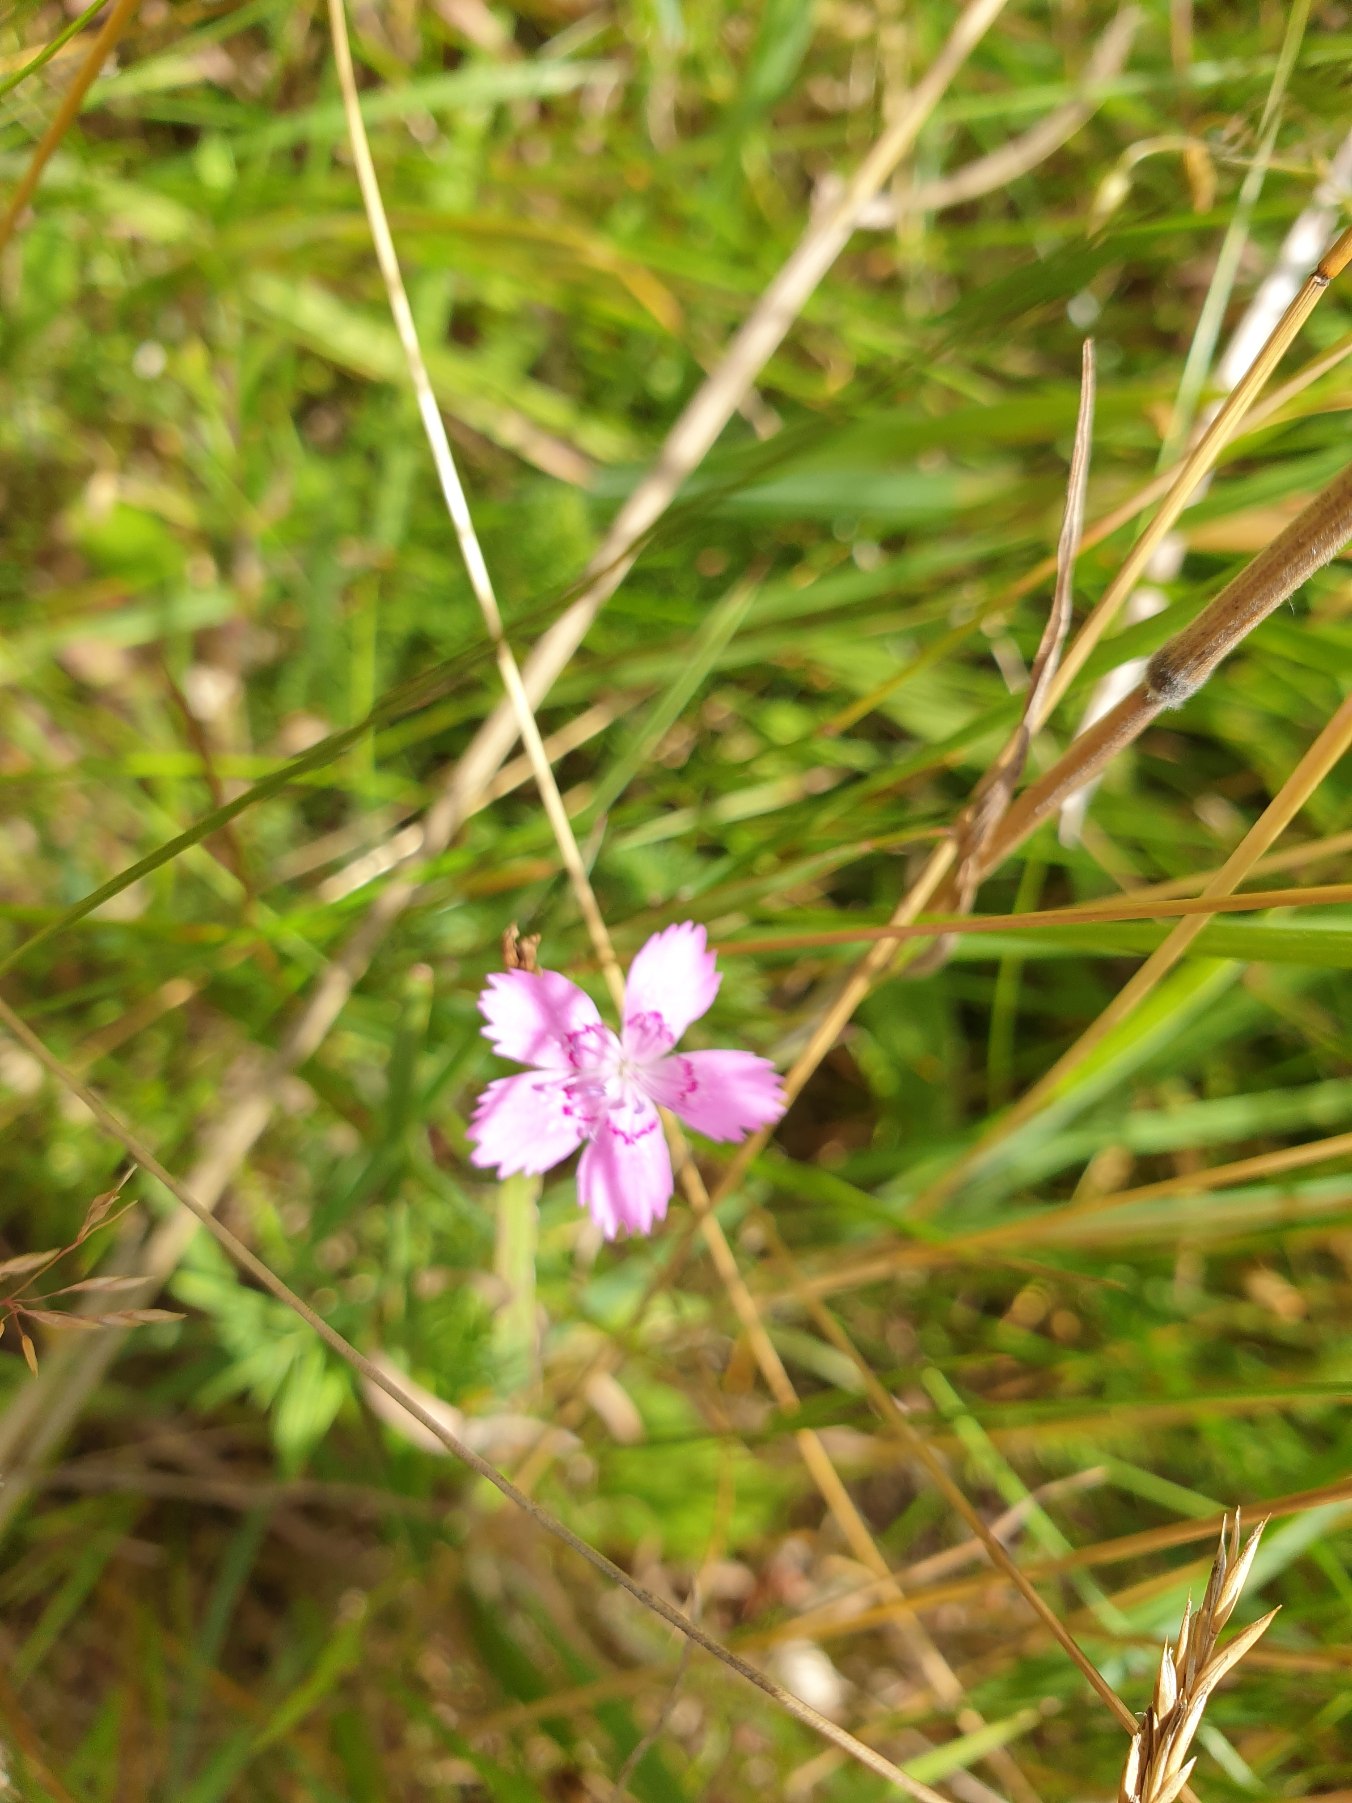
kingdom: Plantae
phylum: Tracheophyta
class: Magnoliopsida
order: Caryophyllales
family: Caryophyllaceae
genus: Dianthus
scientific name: Dianthus deltoides
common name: Bakke-nellike
